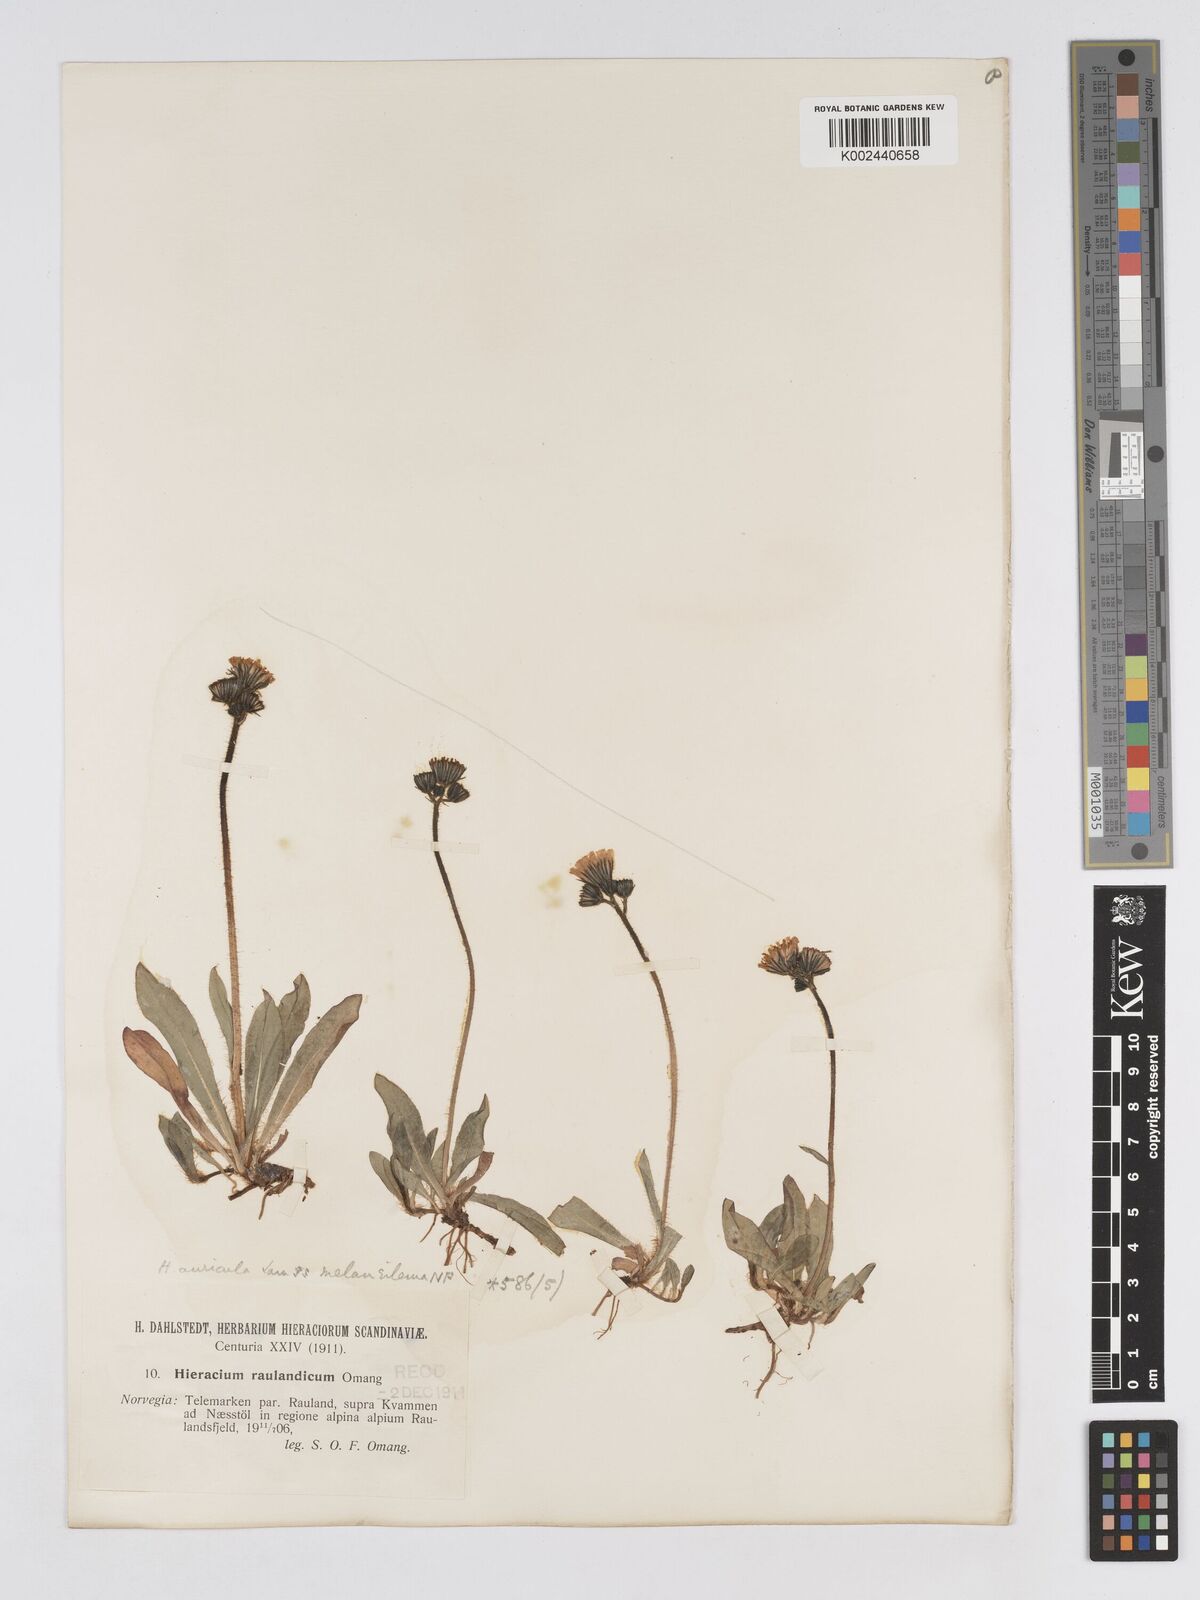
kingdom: Plantae
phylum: Tracheophyta
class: Magnoliopsida
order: Asterales
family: Asteraceae
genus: Pilosella
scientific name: Pilosella lactucella
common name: Glaucous fox-and-cubs
